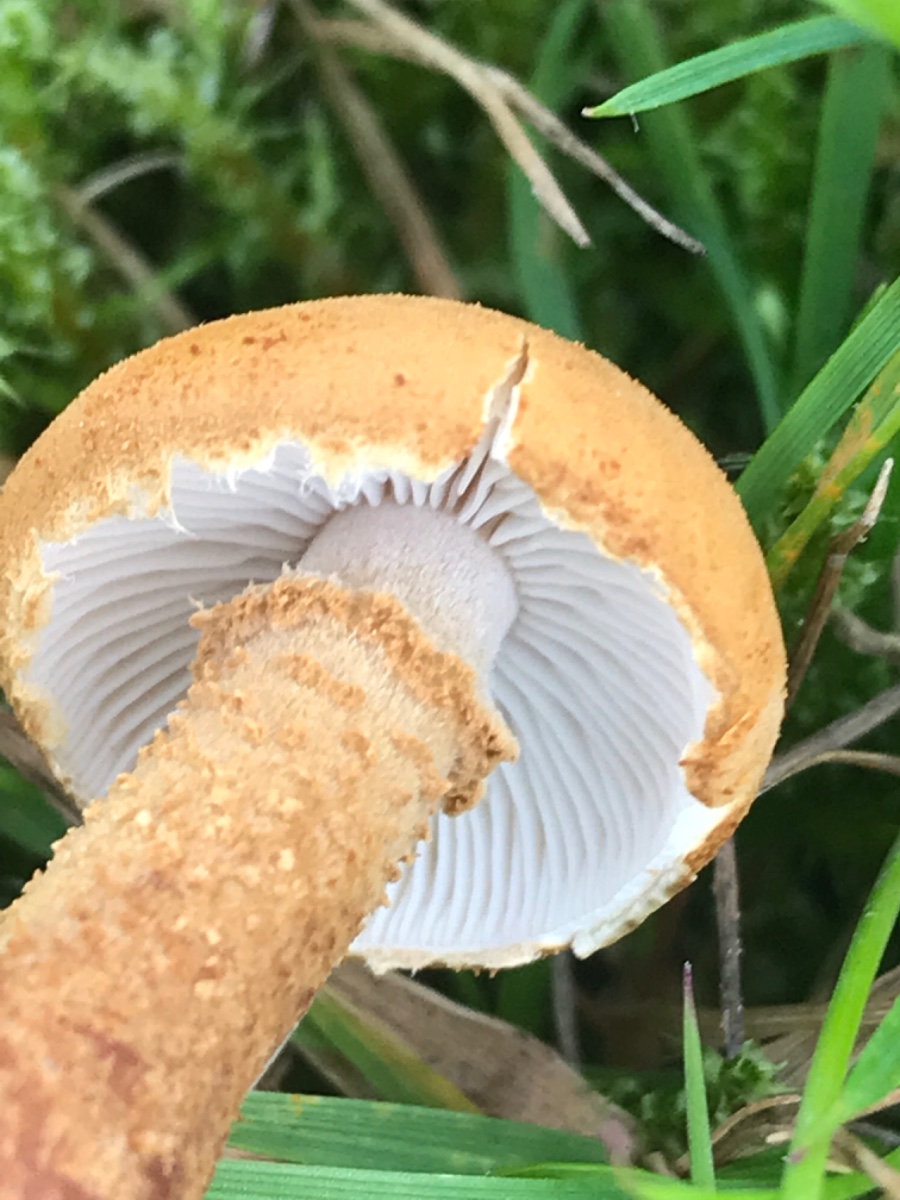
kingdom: Fungi
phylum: Basidiomycota
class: Agaricomycetes
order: Agaricales
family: Tricholomataceae
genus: Cystoderma
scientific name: Cystoderma amianthinum
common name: okkergul grynhat
